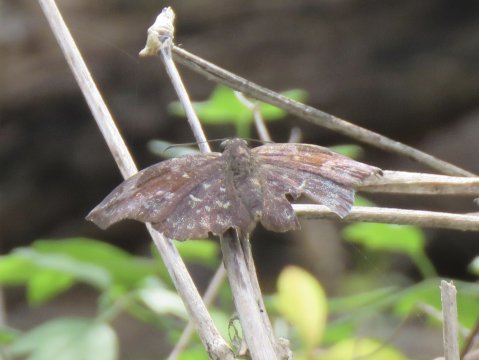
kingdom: Animalia
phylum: Arthropoda
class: Insecta
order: Lepidoptera
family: Hesperiidae
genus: Achlyodes
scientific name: Achlyodes thraso
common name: Sickle-winged Skipper
